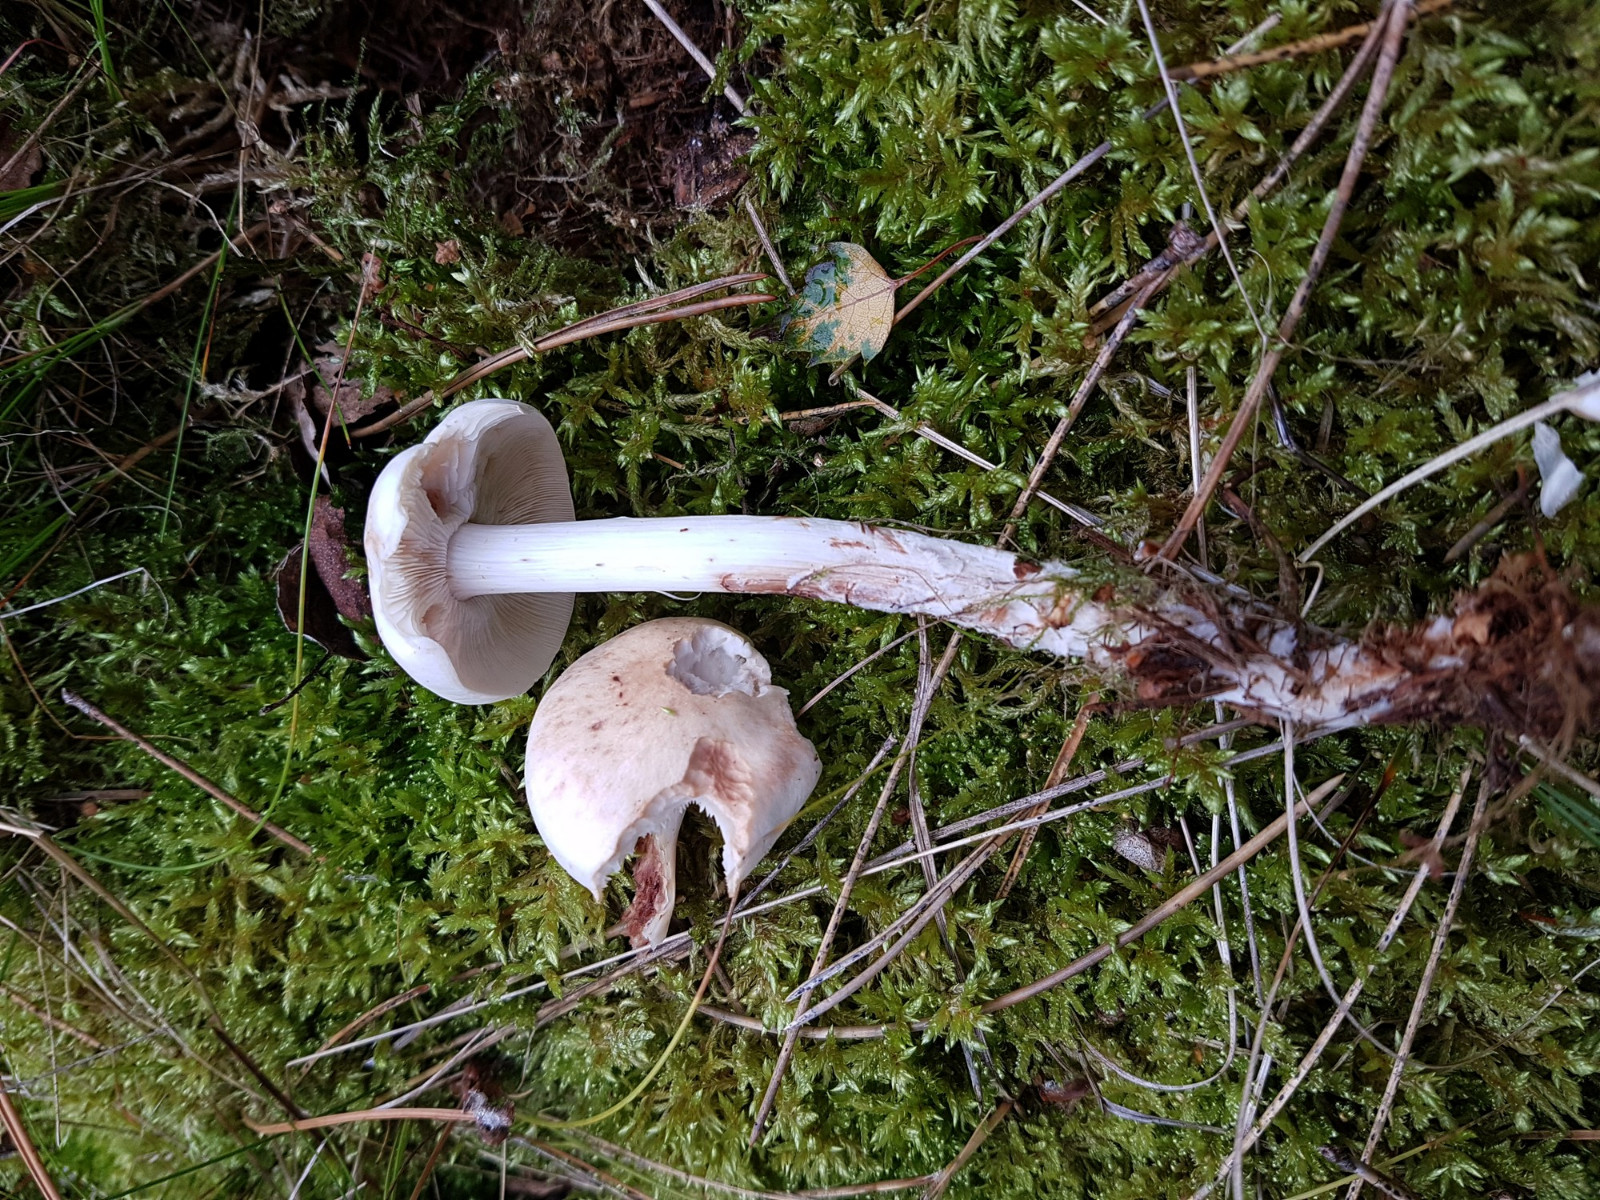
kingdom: Fungi
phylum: Basidiomycota
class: Agaricomycetes
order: Agaricales
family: Omphalotaceae
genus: Rhodocollybia
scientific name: Rhodocollybia maculata
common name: plettet fladhat
